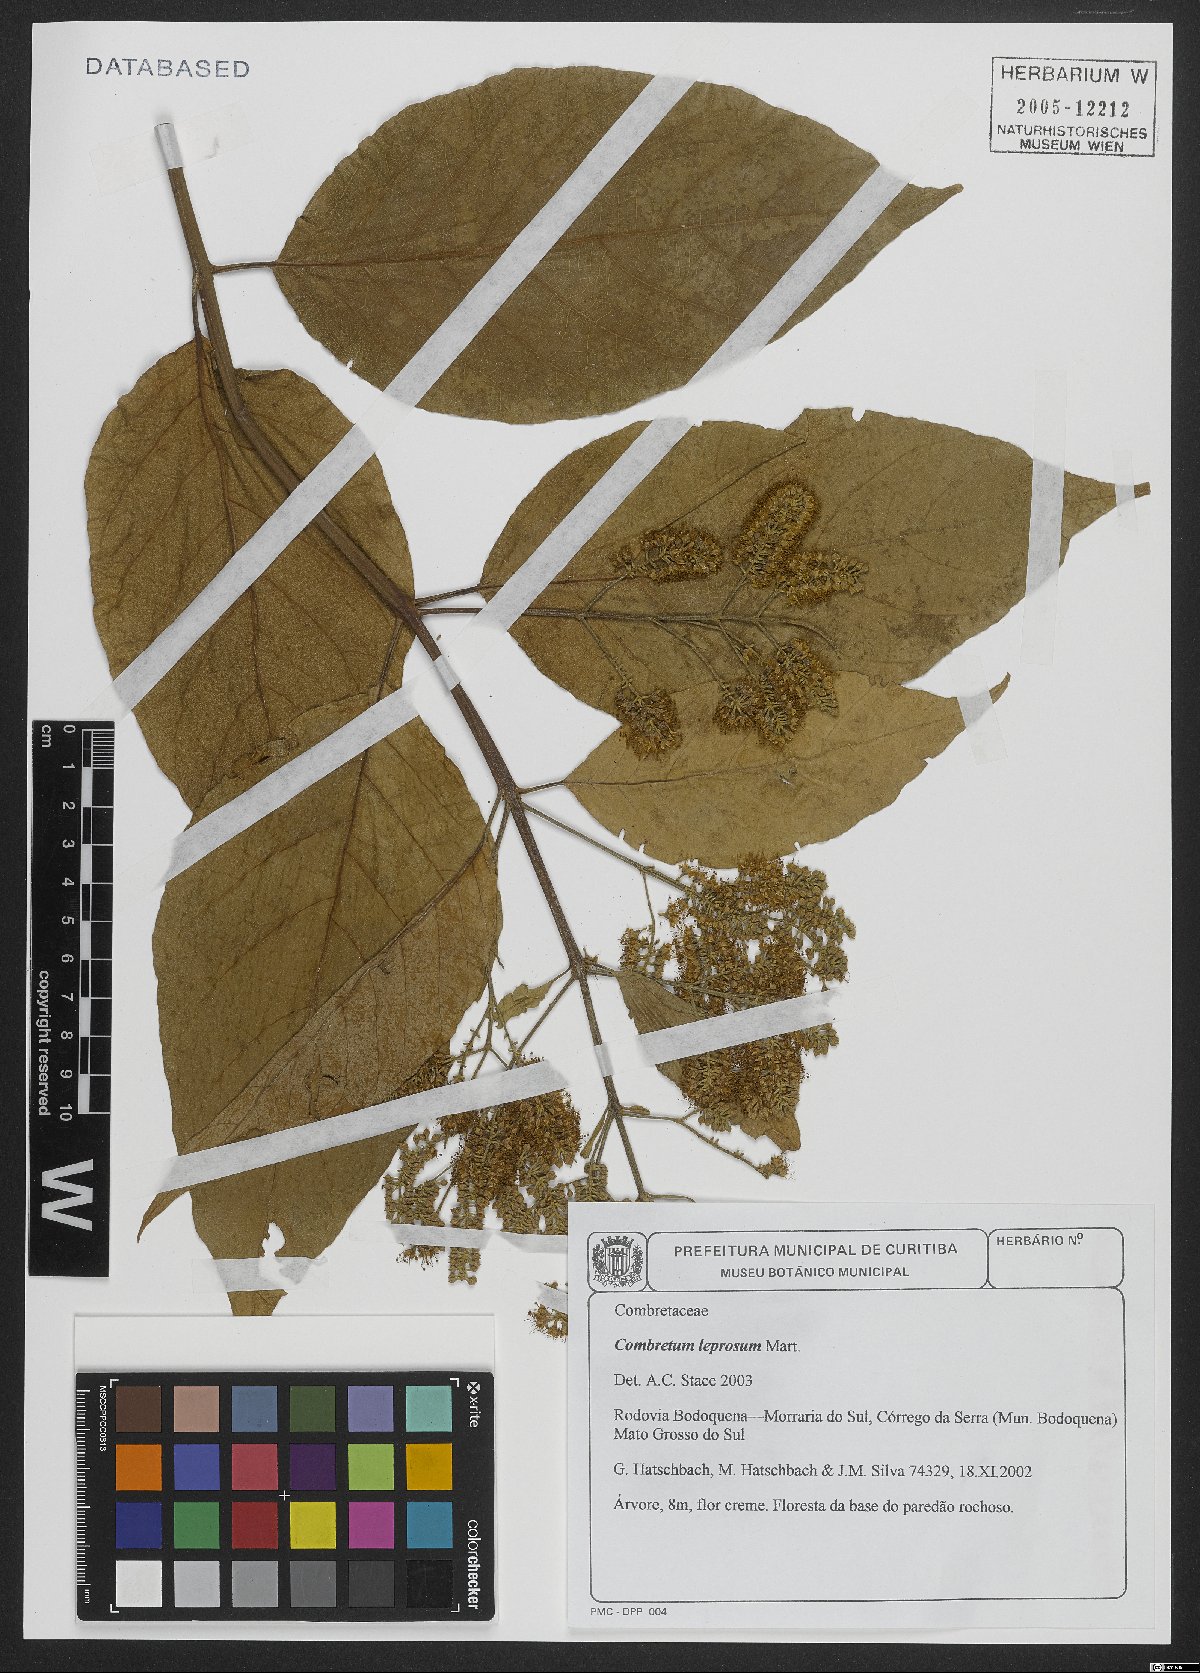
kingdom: Plantae
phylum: Tracheophyta
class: Magnoliopsida
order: Myrtales
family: Combretaceae
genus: Combretum
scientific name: Combretum leprosum
